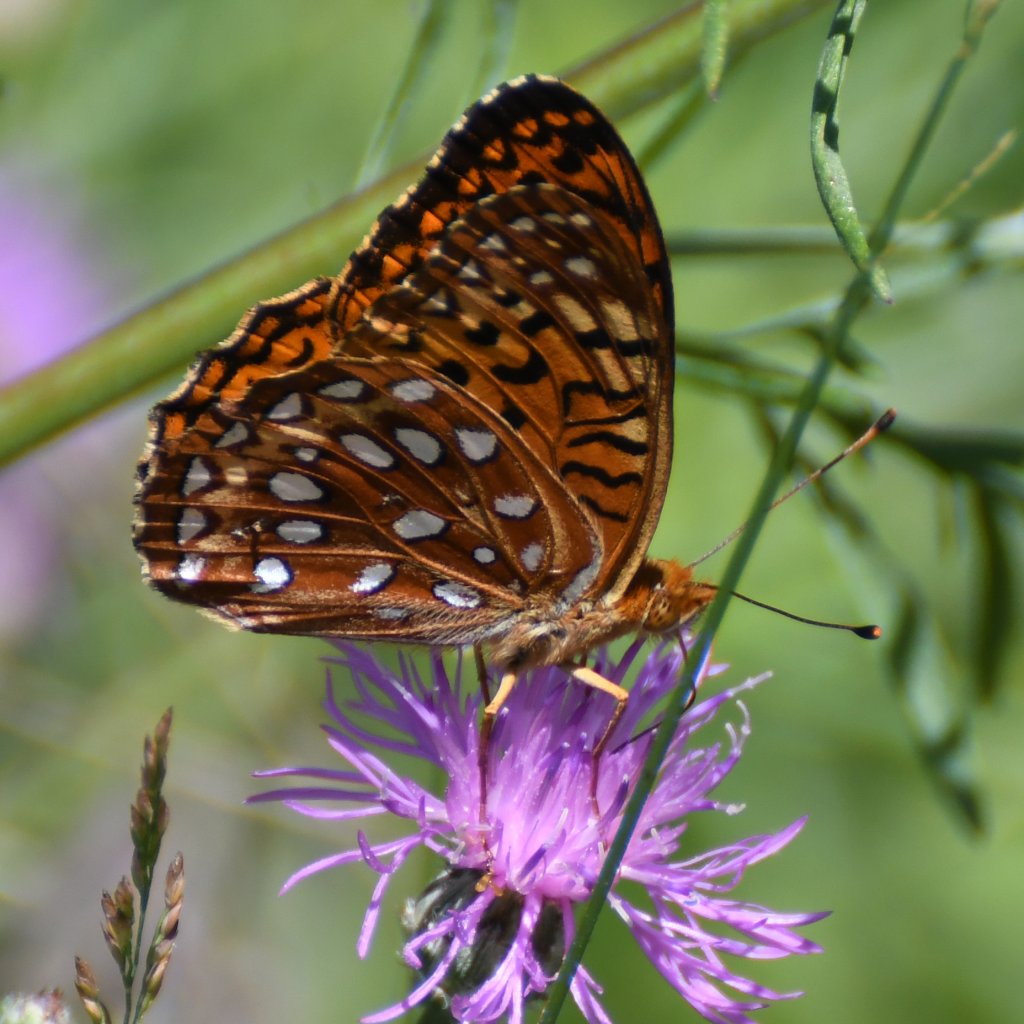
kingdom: Animalia
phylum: Arthropoda
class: Insecta
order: Lepidoptera
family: Nymphalidae
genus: Speyeria
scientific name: Speyeria aphrodite
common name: Aphrodite Fritillary
